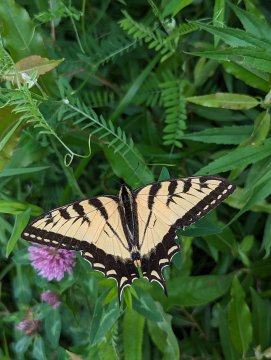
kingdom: Animalia
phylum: Arthropoda
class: Insecta
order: Lepidoptera
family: Papilionidae
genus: Pterourus
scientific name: Pterourus canadensis
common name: Canadian Tiger Swallowtail
